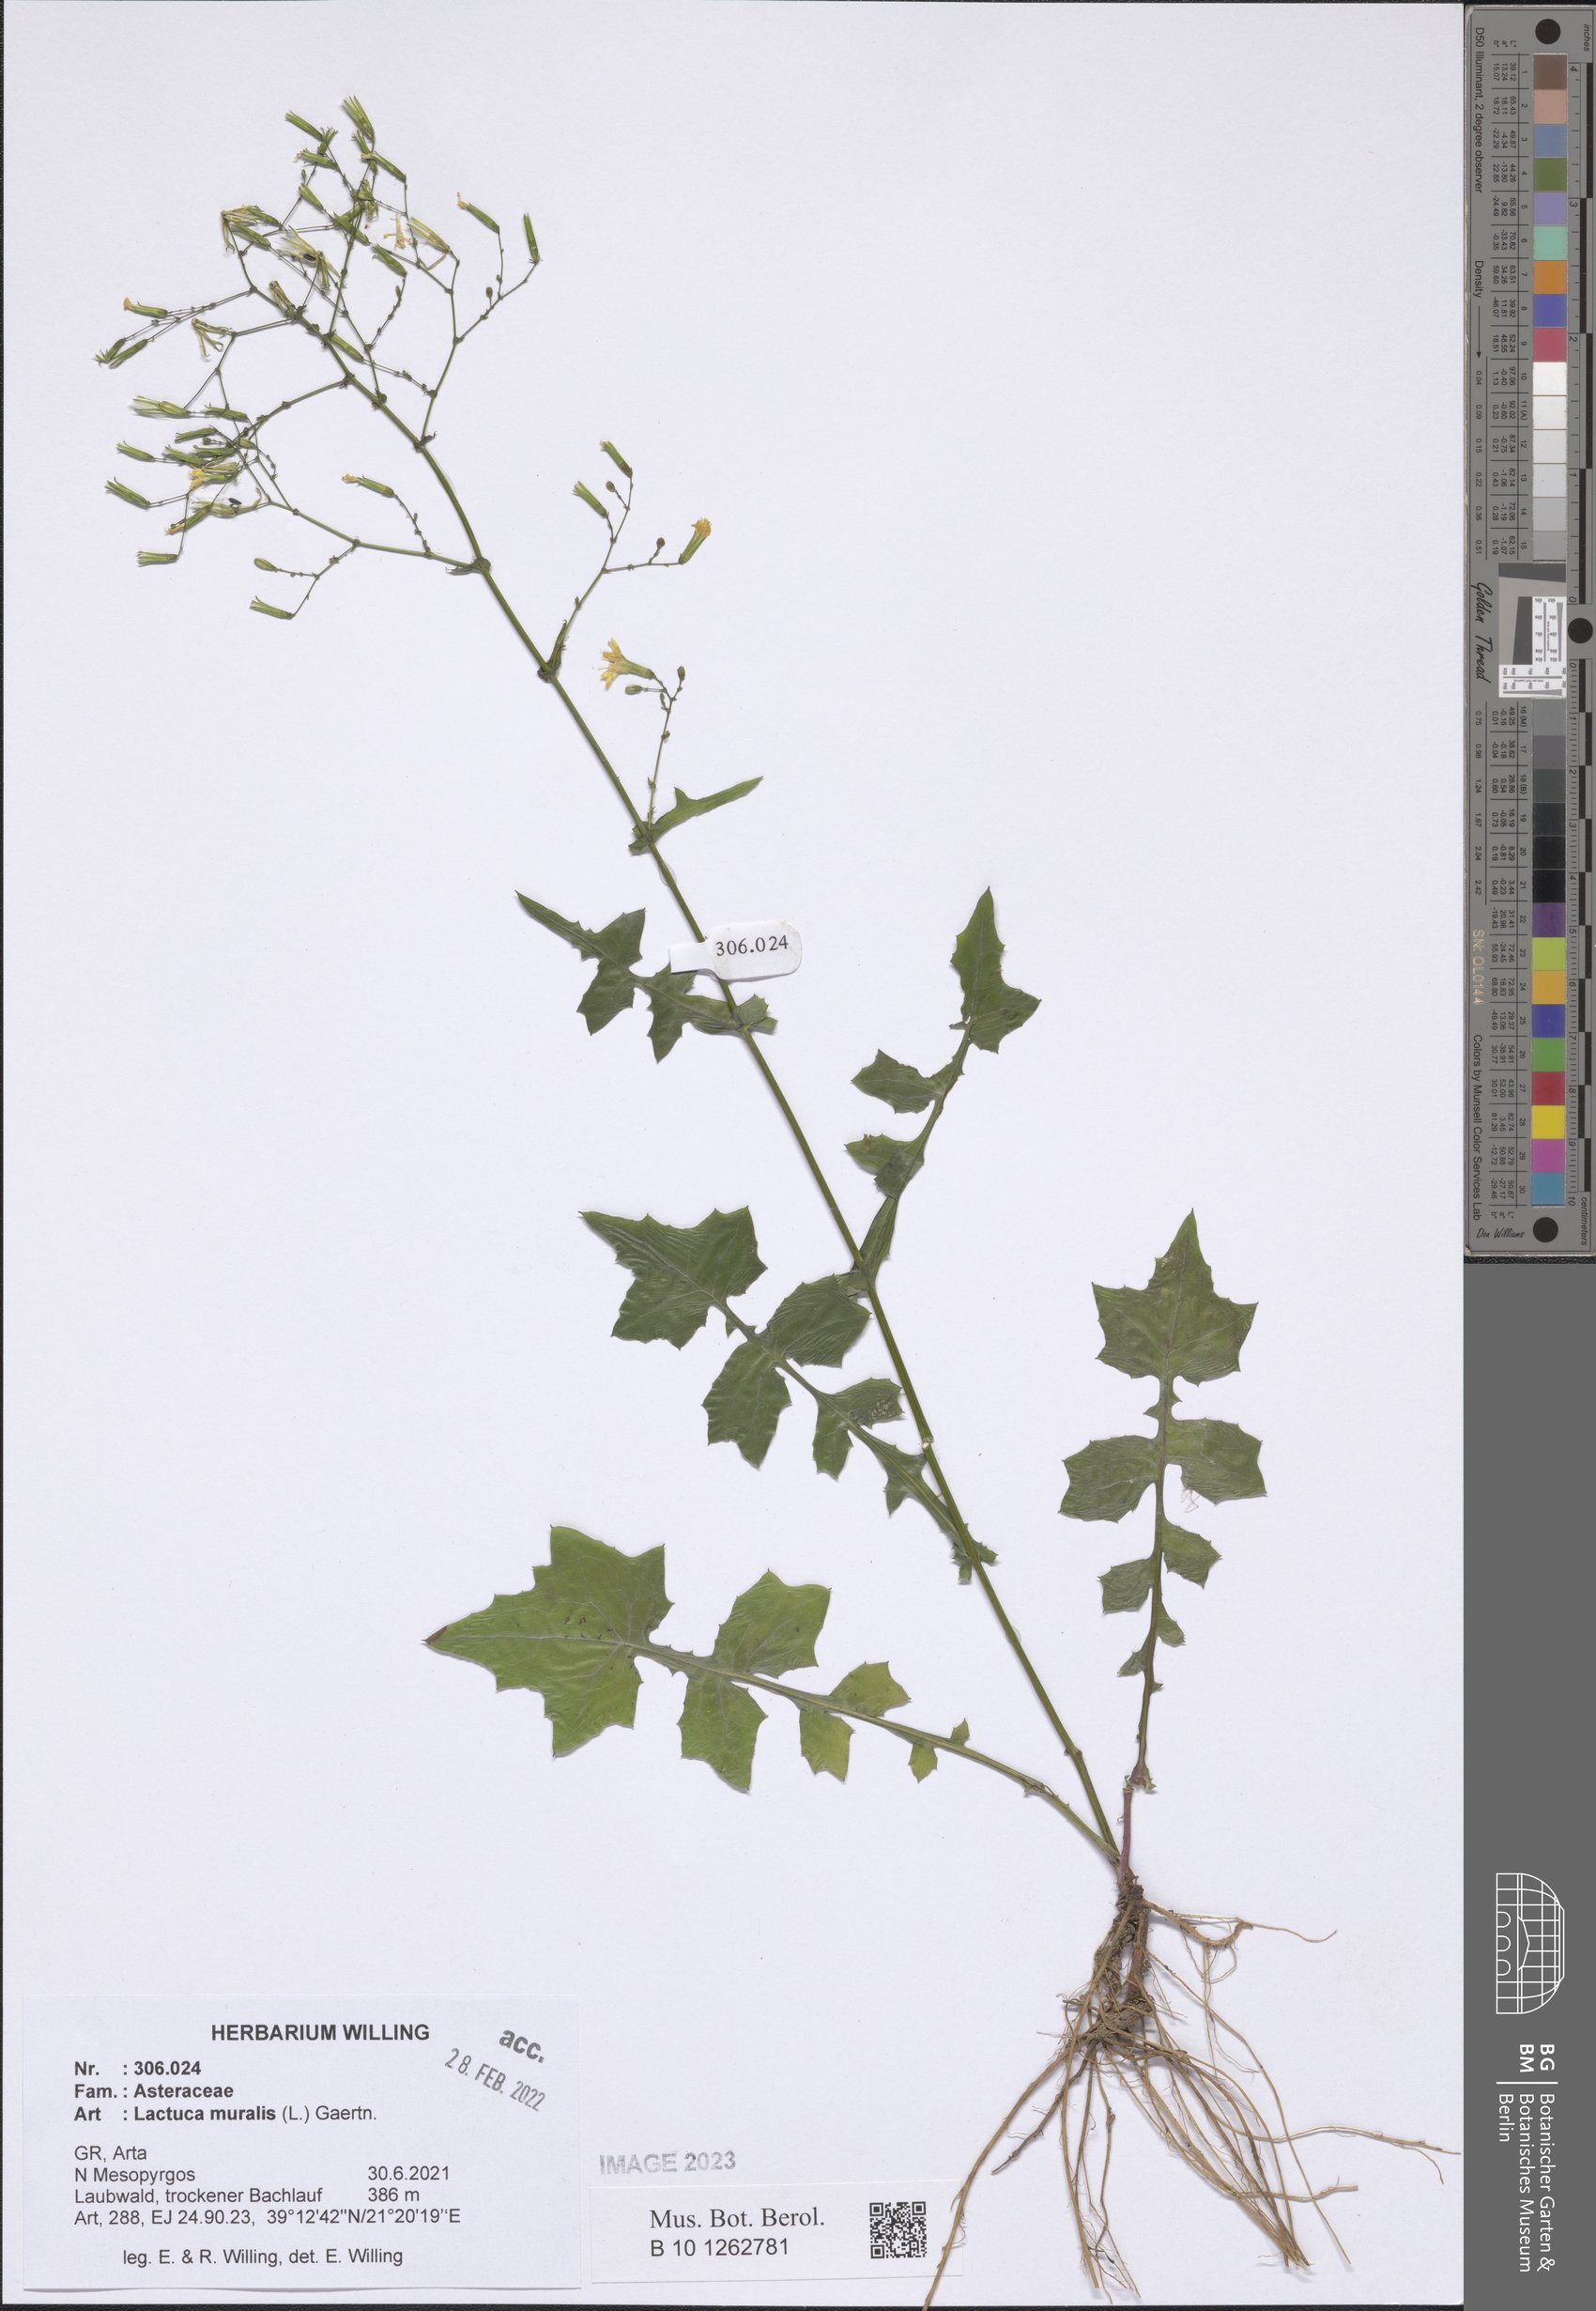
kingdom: Plantae
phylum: Tracheophyta
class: Magnoliopsida
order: Asterales
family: Asteraceae
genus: Mycelis
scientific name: Mycelis muralis
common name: Wall lettuce
